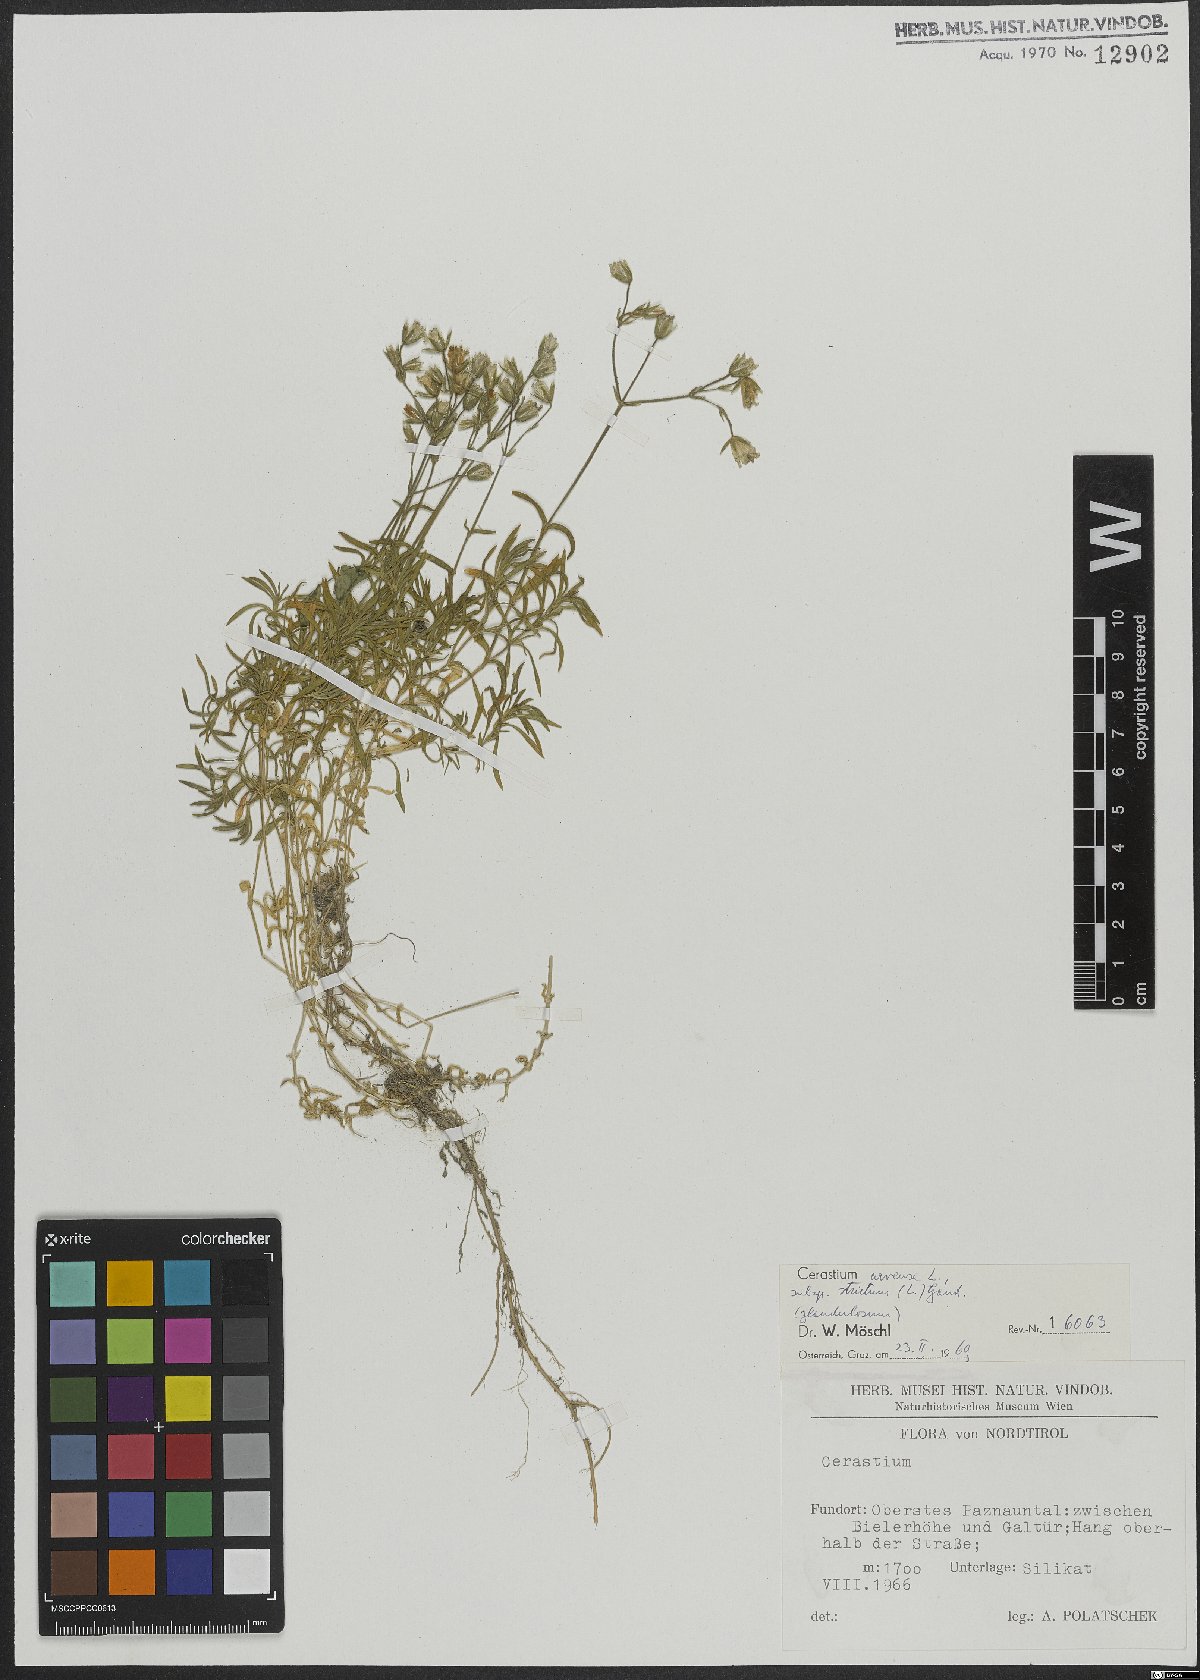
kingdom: Plantae
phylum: Tracheophyta
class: Magnoliopsida
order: Caryophyllales
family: Caryophyllaceae
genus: Cerastium
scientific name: Cerastium elongatum
